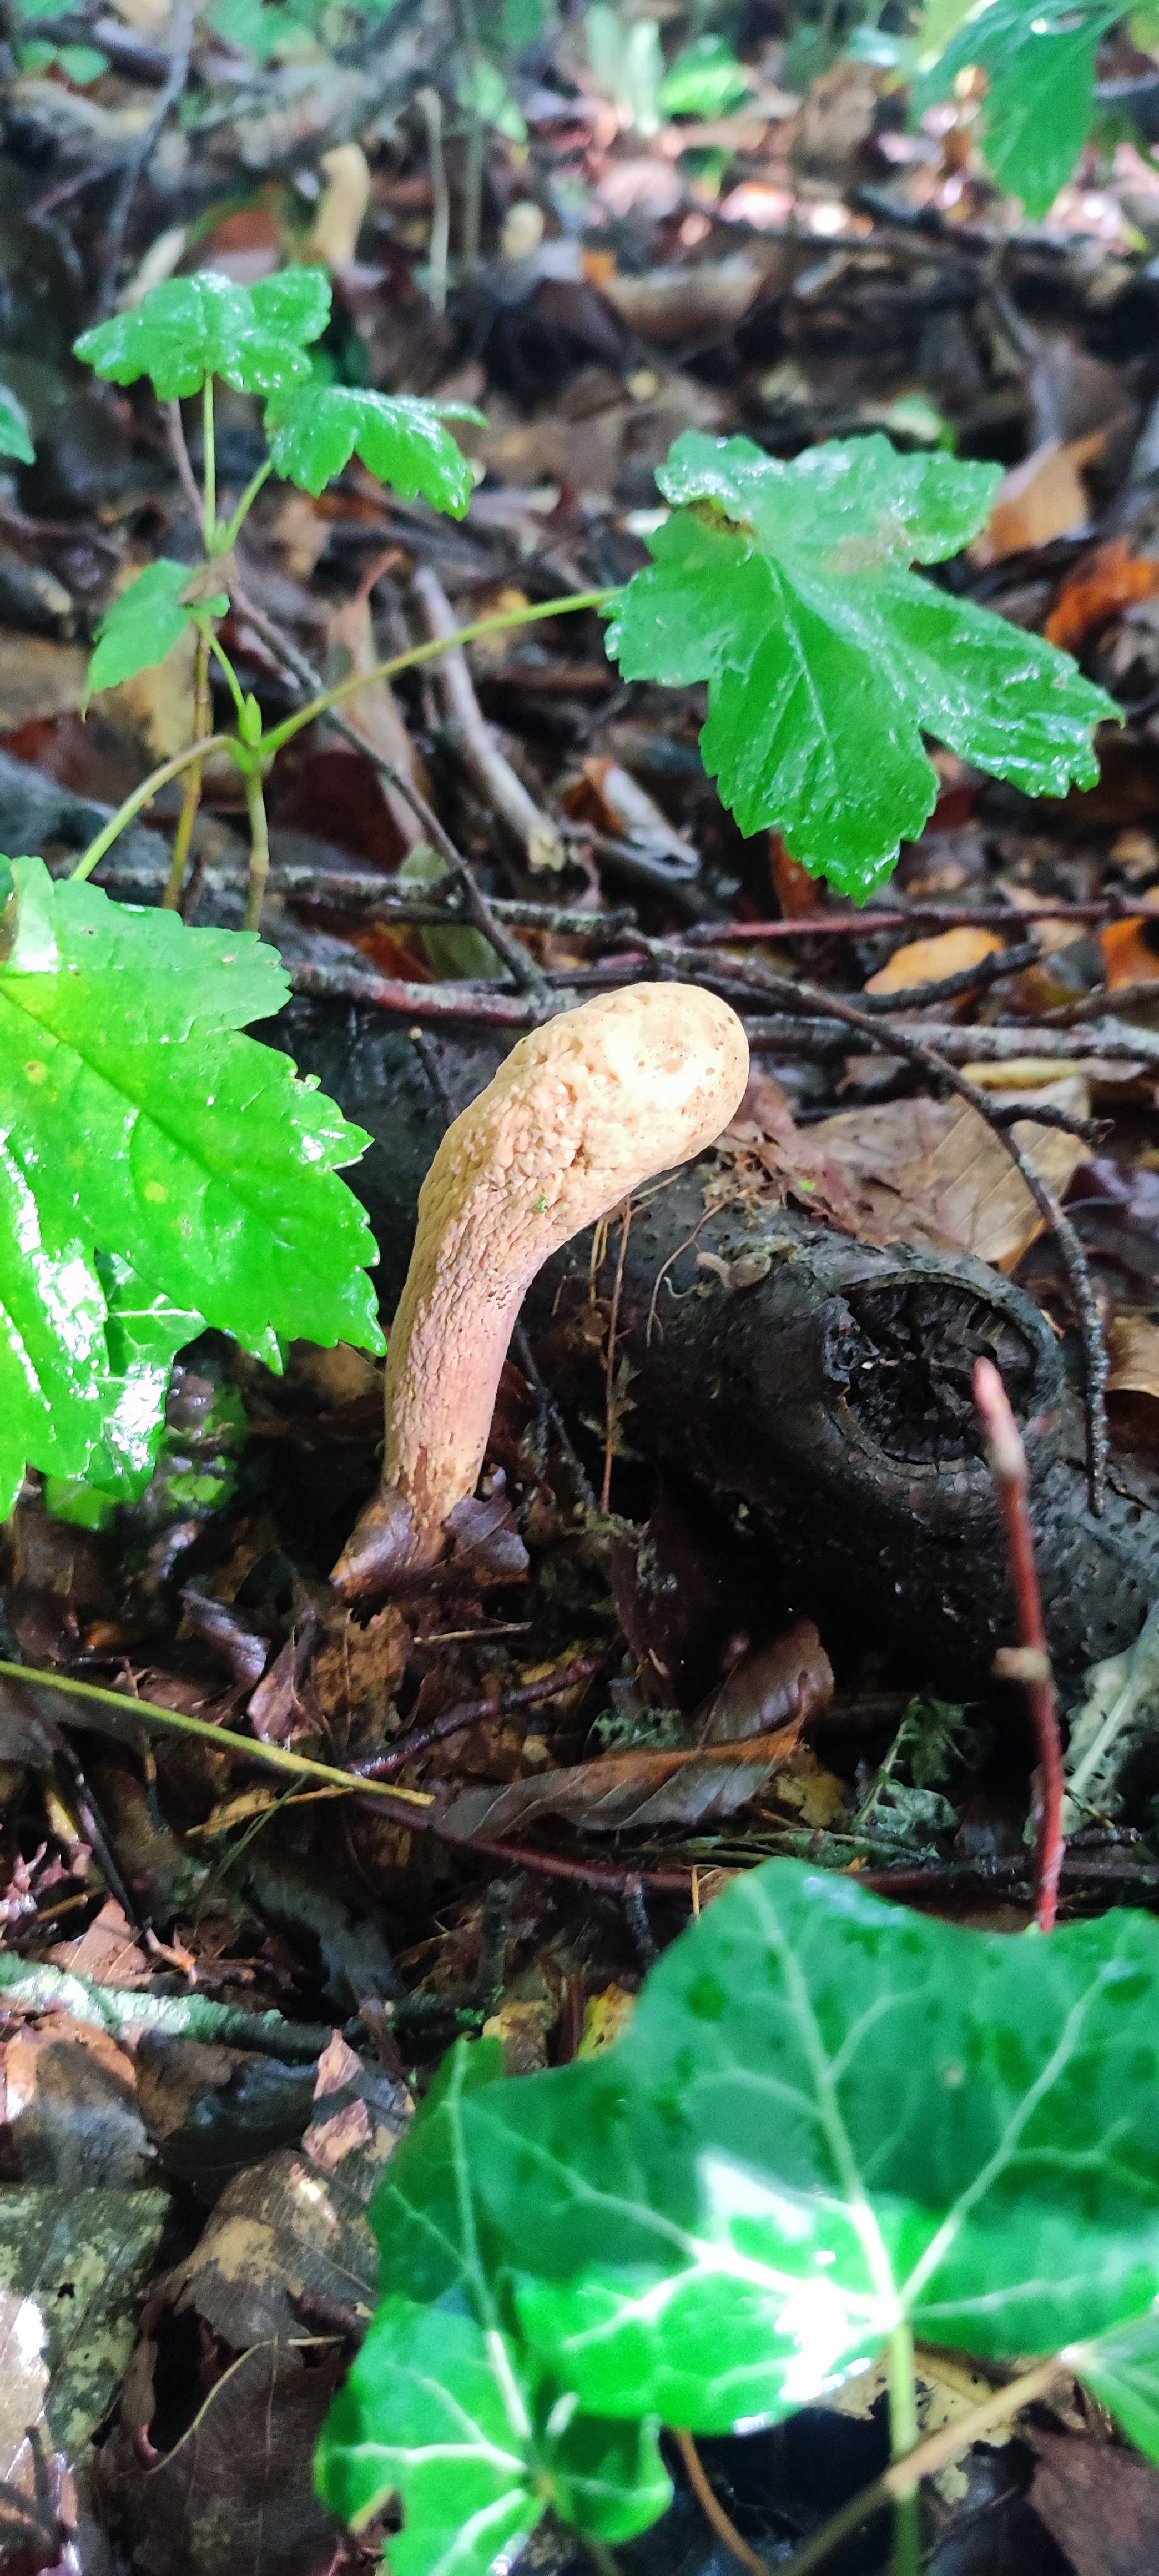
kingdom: Fungi
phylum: Basidiomycota
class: Agaricomycetes
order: Gomphales
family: Clavariadelphaceae
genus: Clavariadelphus
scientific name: Clavariadelphus pistillaris
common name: herkules-kæmpekølle
